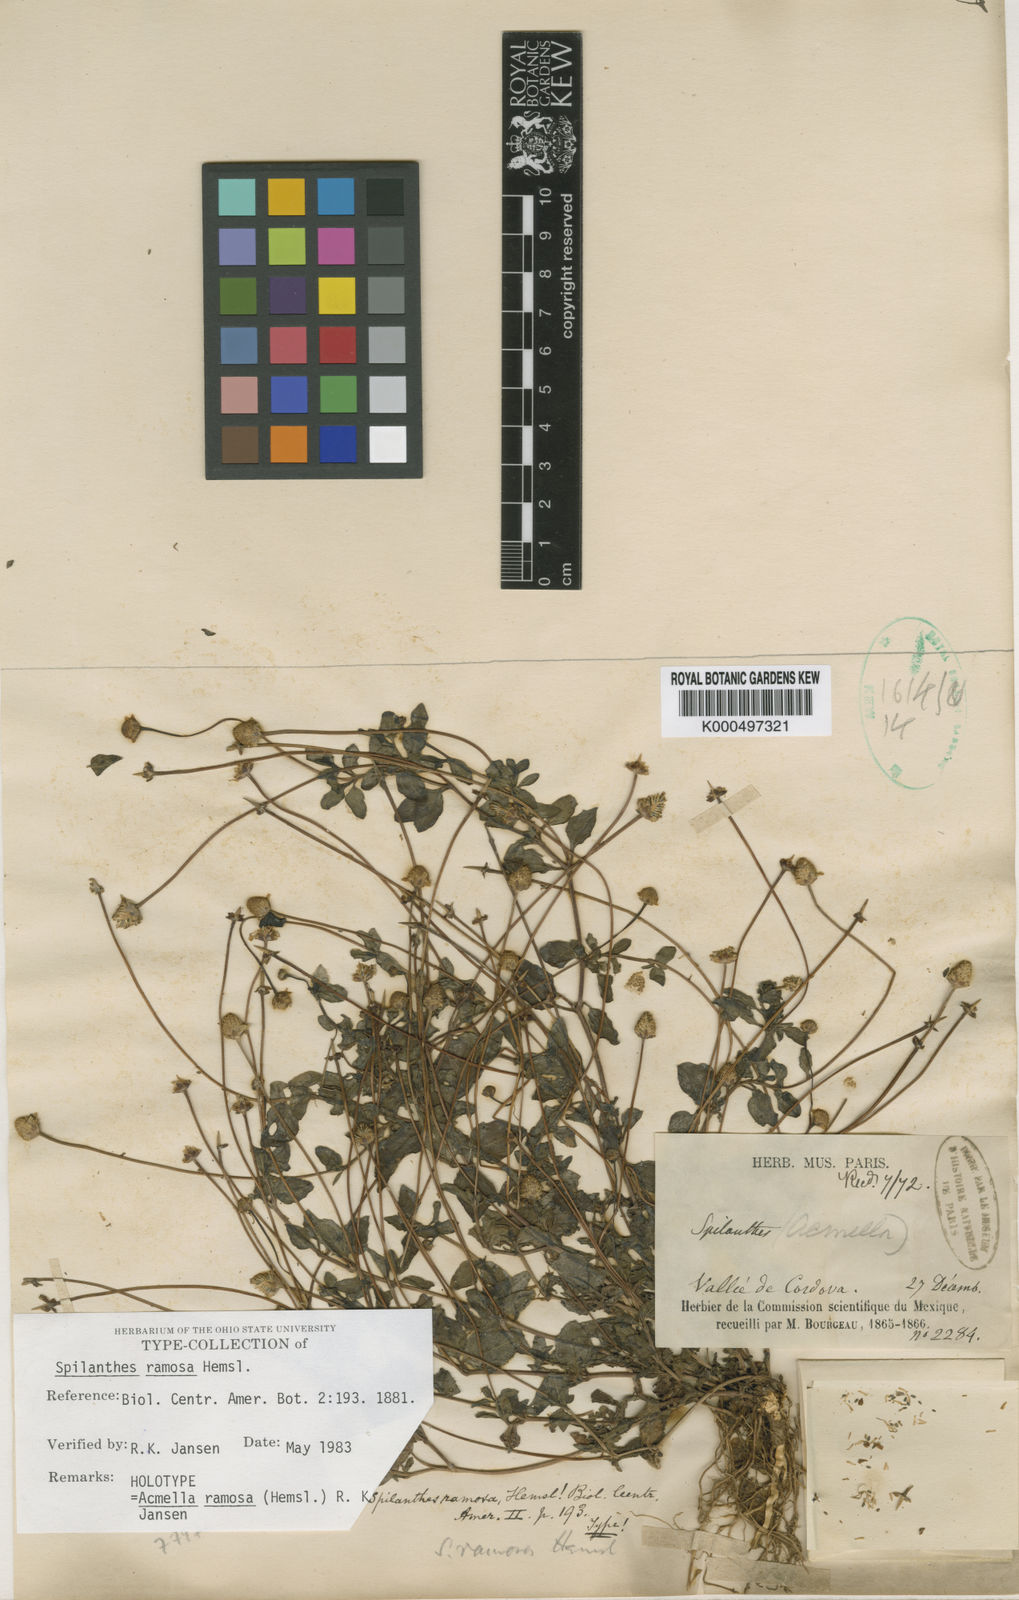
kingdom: Plantae
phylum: Tracheophyta
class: Magnoliopsida
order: Asterales
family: Asteraceae
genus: Acmella
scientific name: Acmella ramosa
